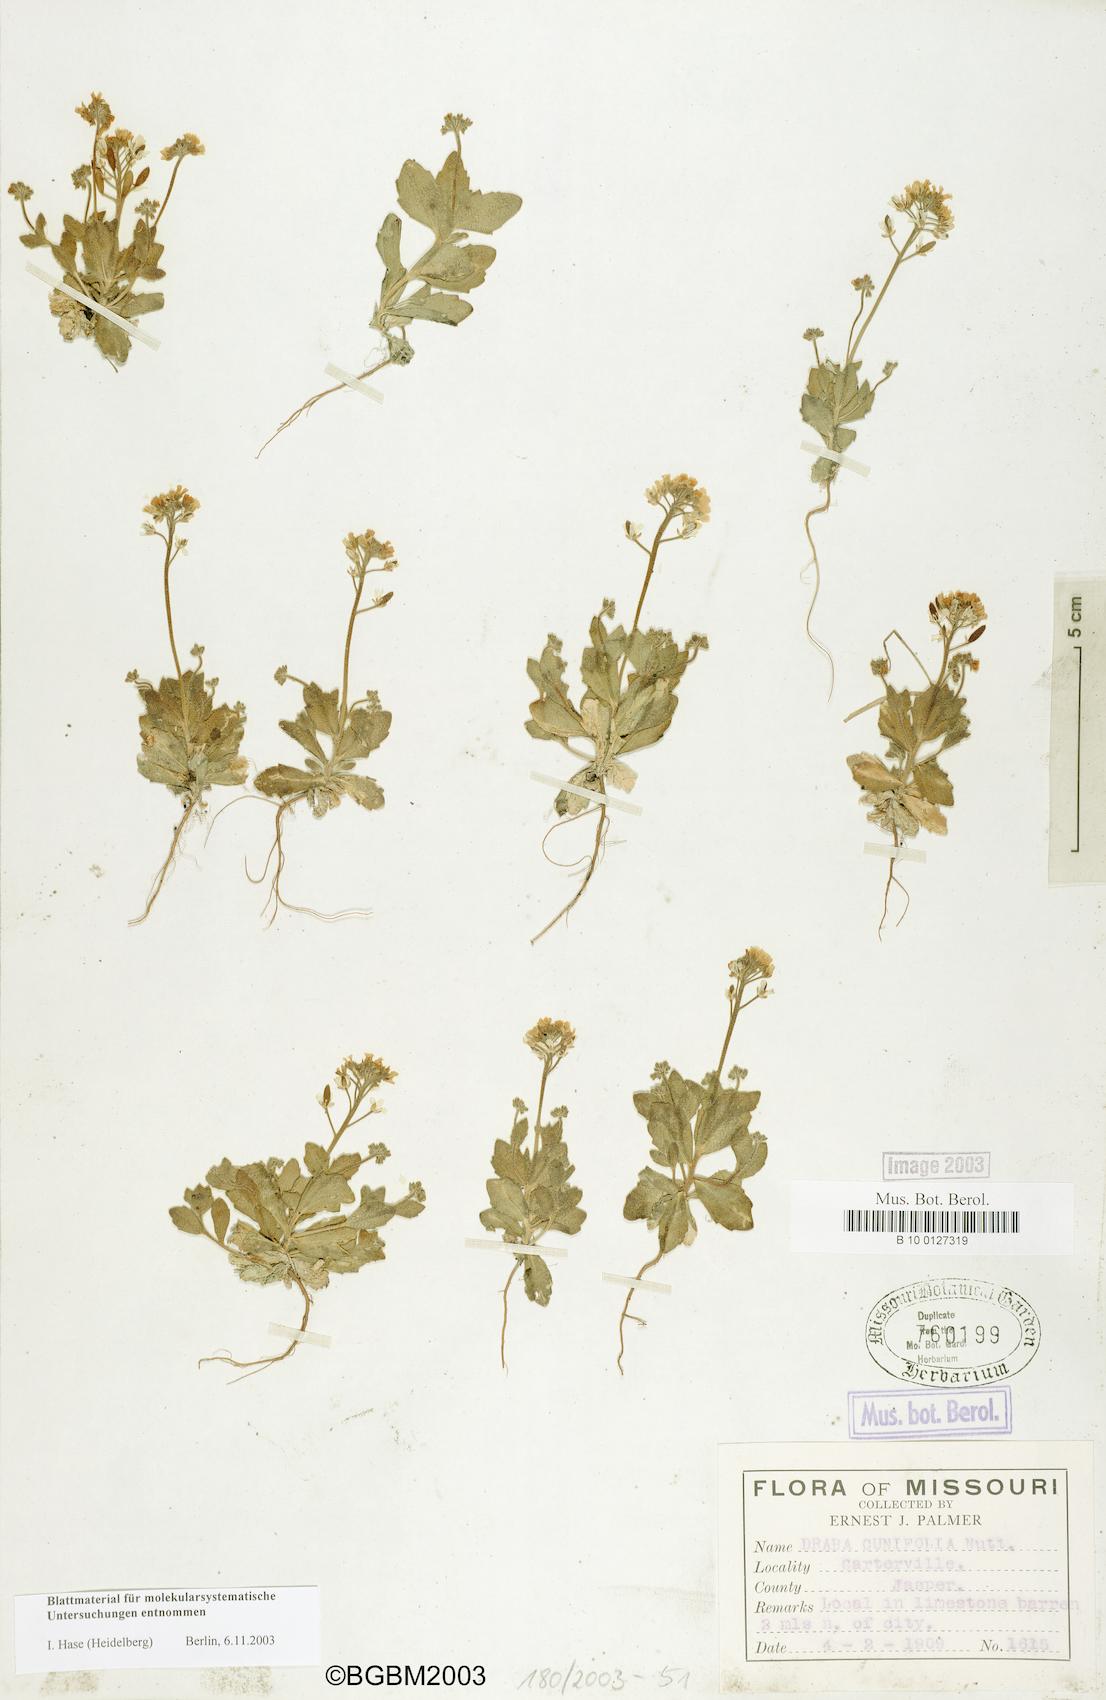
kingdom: Plantae
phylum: Tracheophyta
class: Magnoliopsida
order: Brassicales
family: Brassicaceae
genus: Tomostima
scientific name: Tomostima cuneifolia
